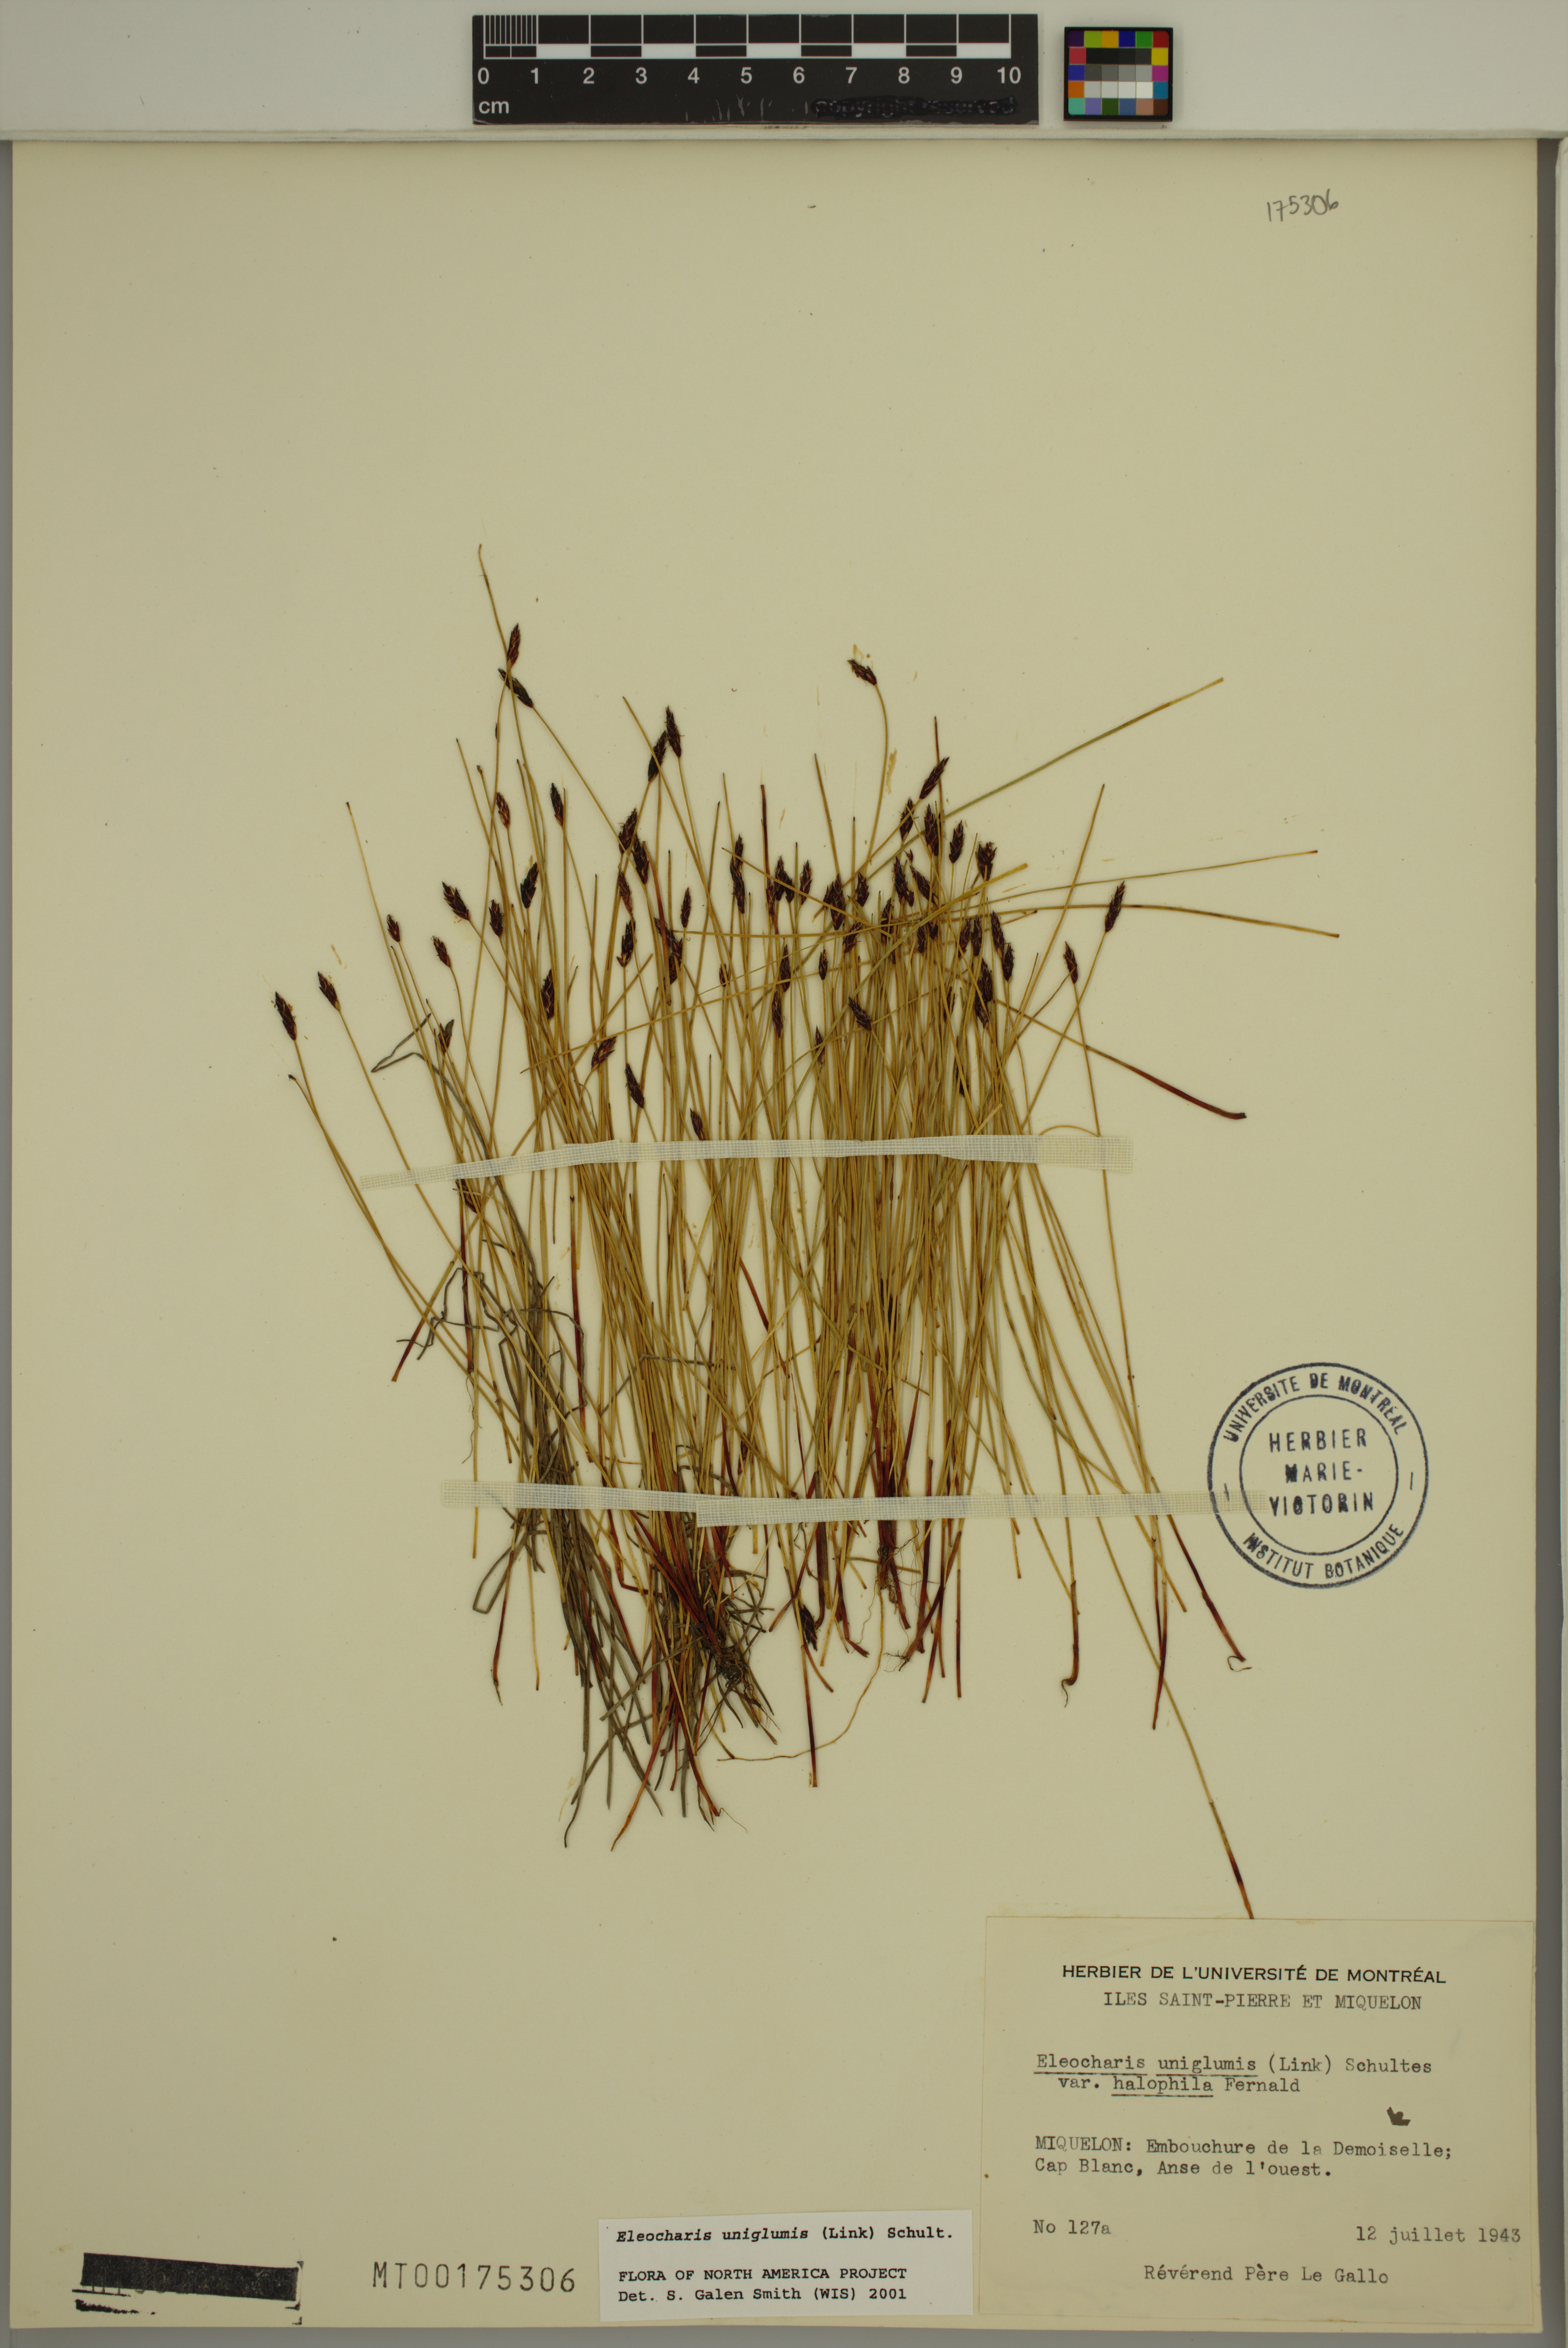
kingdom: Plantae
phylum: Tracheophyta
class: Liliopsida
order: Poales
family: Cyperaceae
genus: Eleocharis
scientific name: Eleocharis uniglumis
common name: Slender spike-rush
